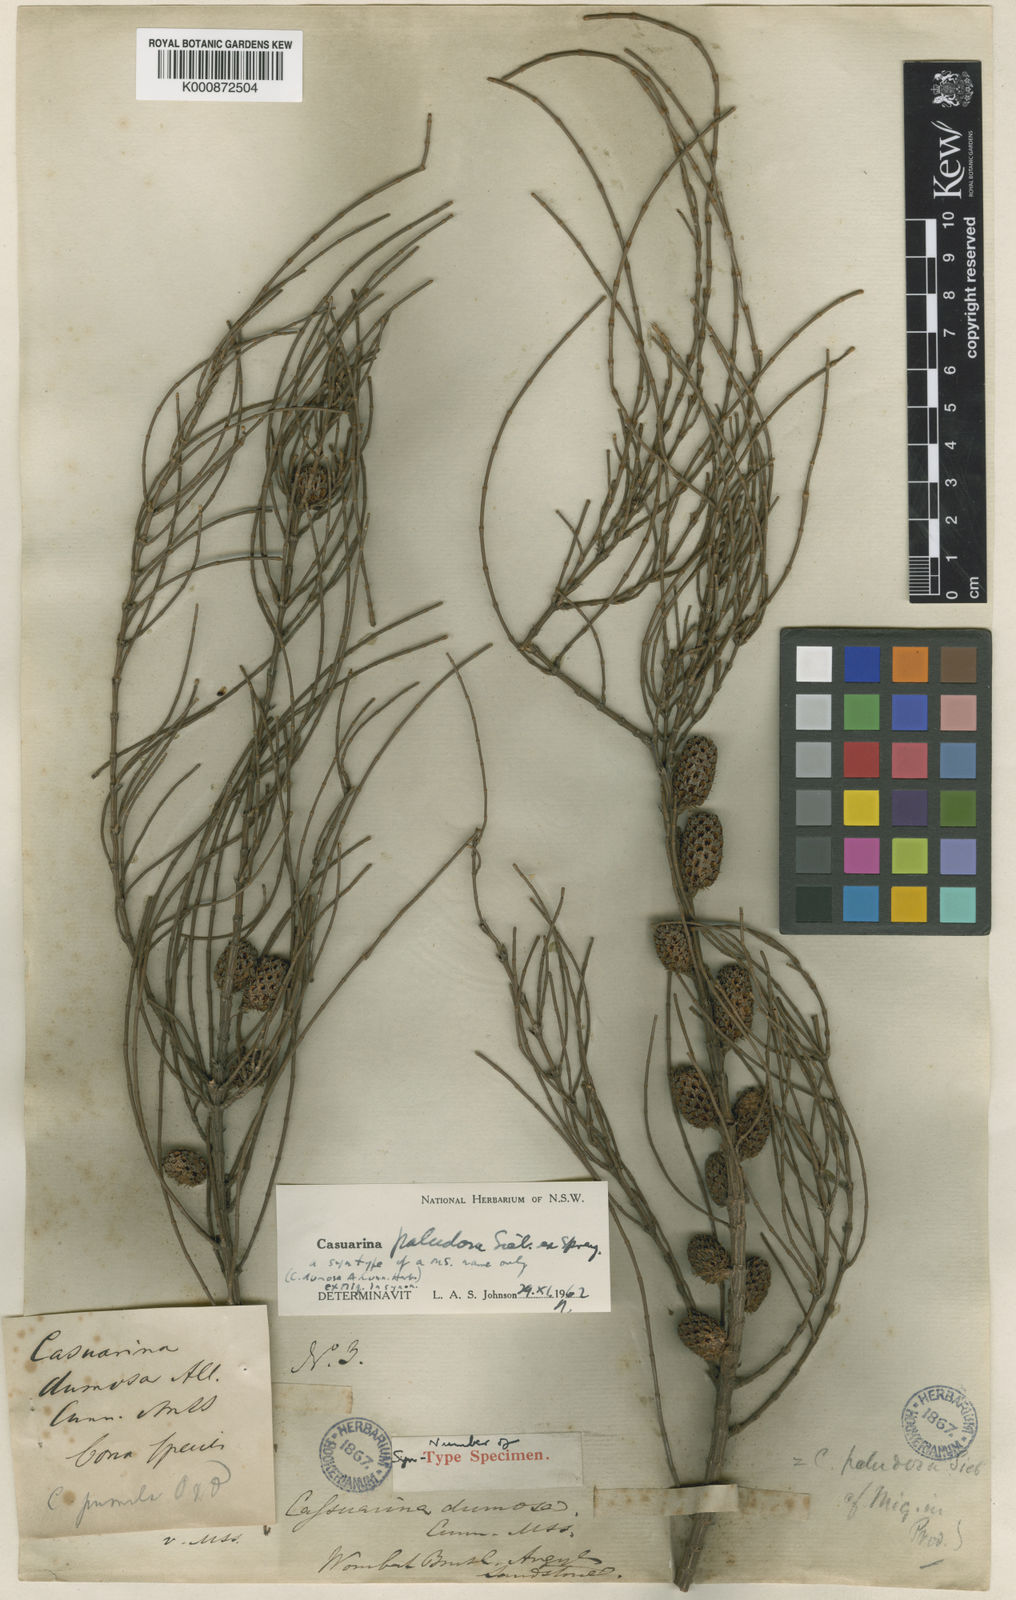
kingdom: Plantae
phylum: Tracheophyta
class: Magnoliopsida
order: Fagales
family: Casuarinaceae
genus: Allocasuarina
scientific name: Allocasuarina paludosa
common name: Scrub she-oak
